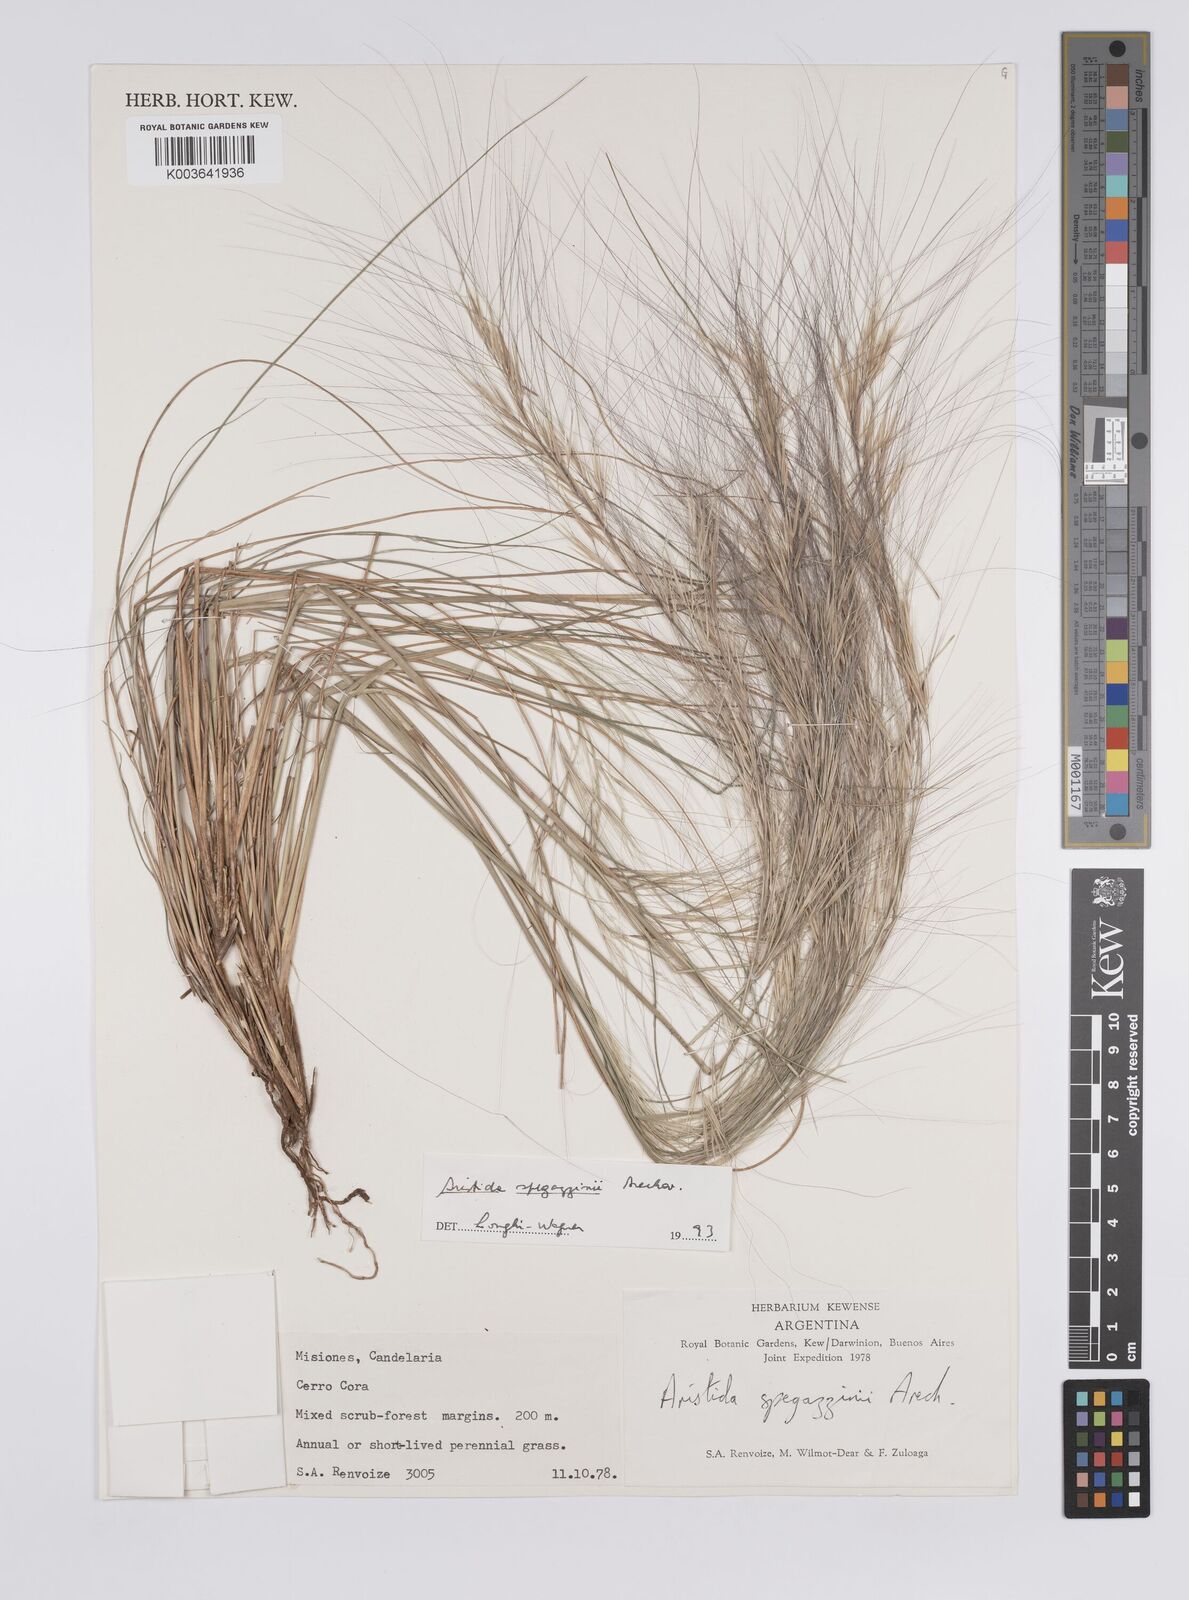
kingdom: Plantae
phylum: Tracheophyta
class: Liliopsida
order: Poales
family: Poaceae
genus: Aristida
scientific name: Aristida spegazzinii
